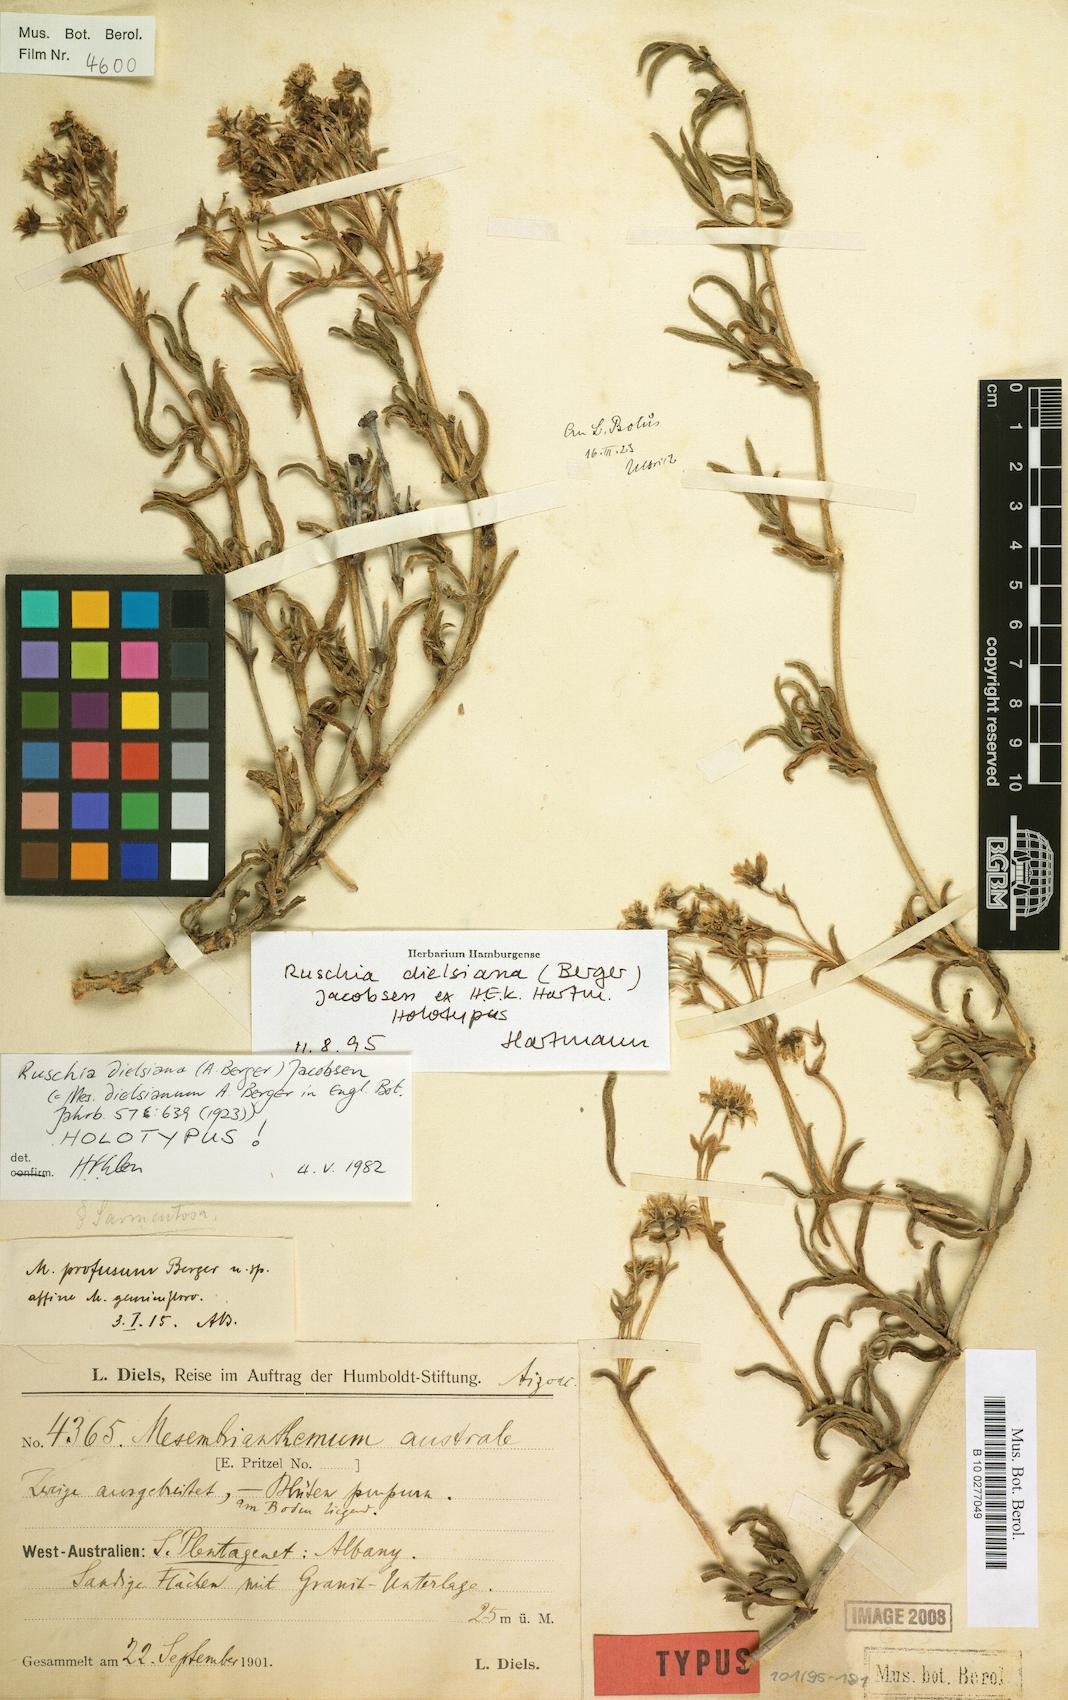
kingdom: Plantae
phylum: Tracheophyta
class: Magnoliopsida
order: Caryophyllales
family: Aizoaceae
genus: Ruschia
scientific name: Ruschia dielsiana
